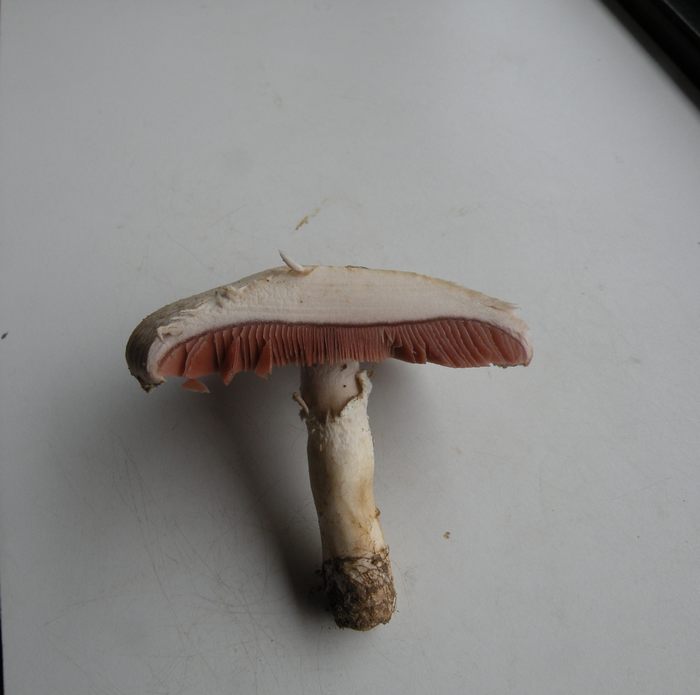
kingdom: Fungi
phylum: Basidiomycota
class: Agaricomycetes
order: Agaricales
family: Agaricaceae
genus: Agaricus
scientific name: Agaricus campestris
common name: mark-champignon
